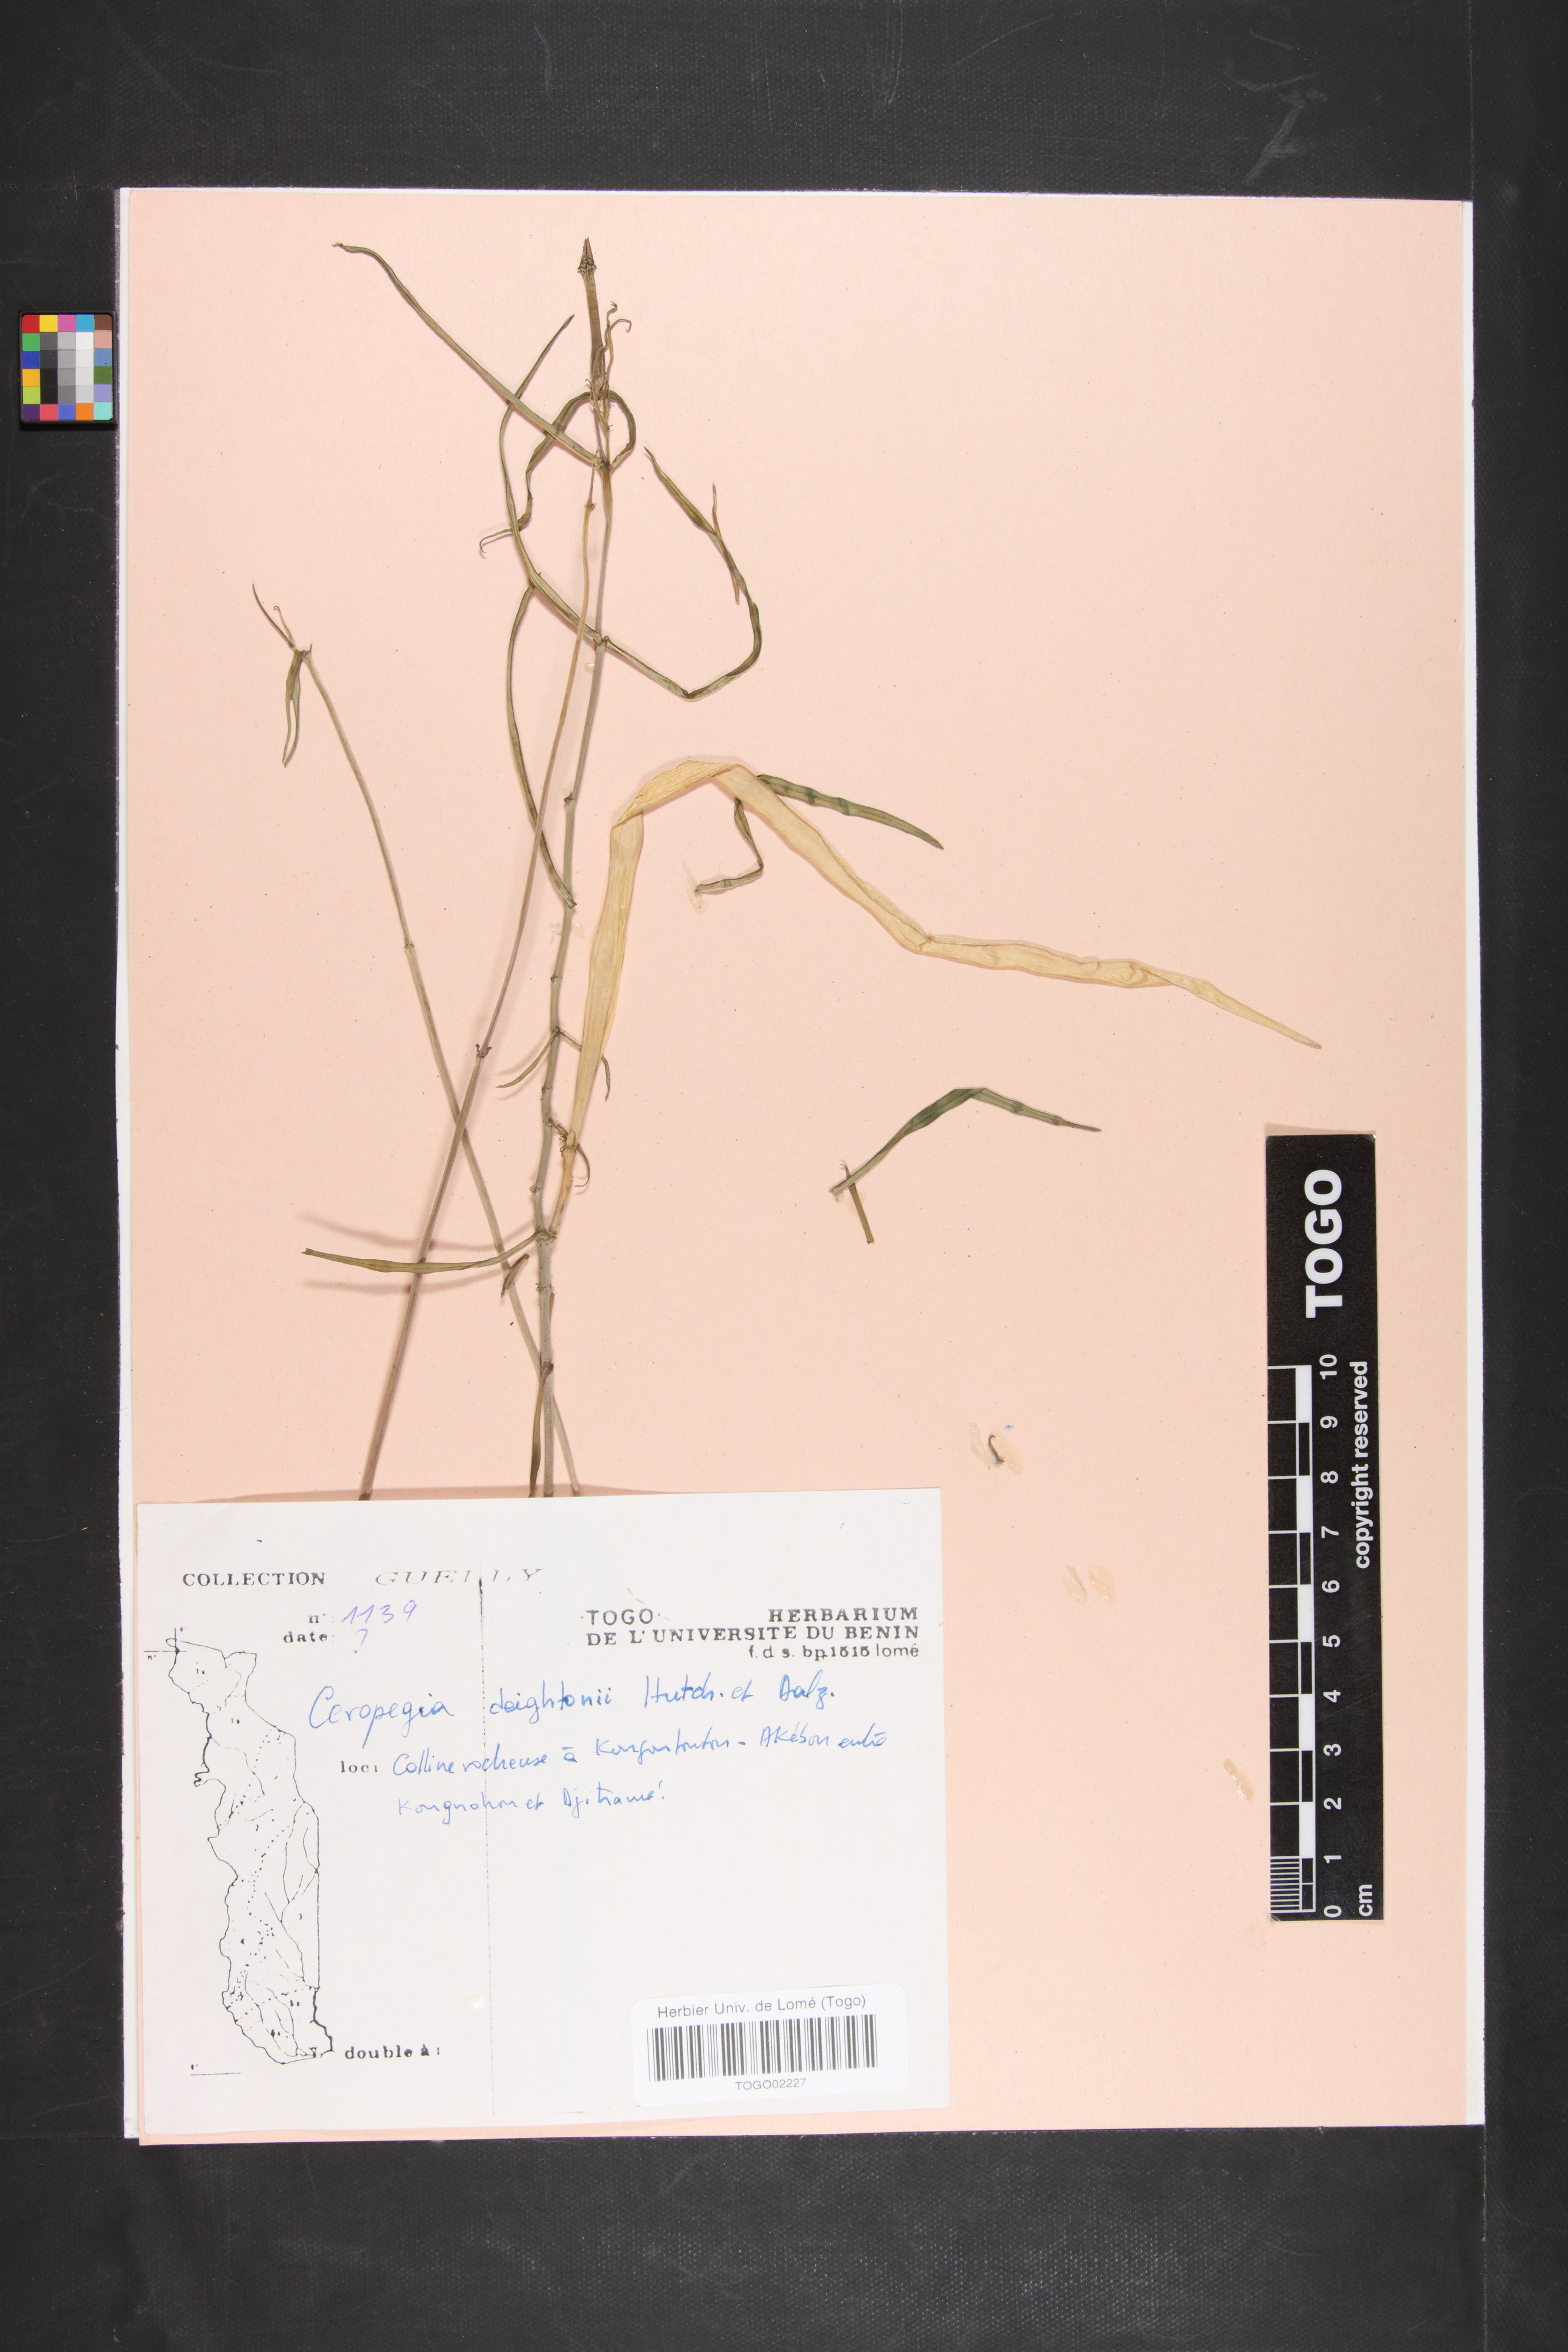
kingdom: Plantae
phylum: Tracheophyta
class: Magnoliopsida
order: Gentianales
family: Apocynaceae
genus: Ceropegia
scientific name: Ceropegia deightonii
